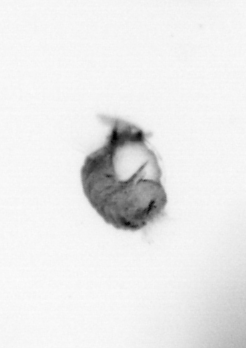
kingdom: Animalia
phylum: Annelida
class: Polychaeta
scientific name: Polychaeta
